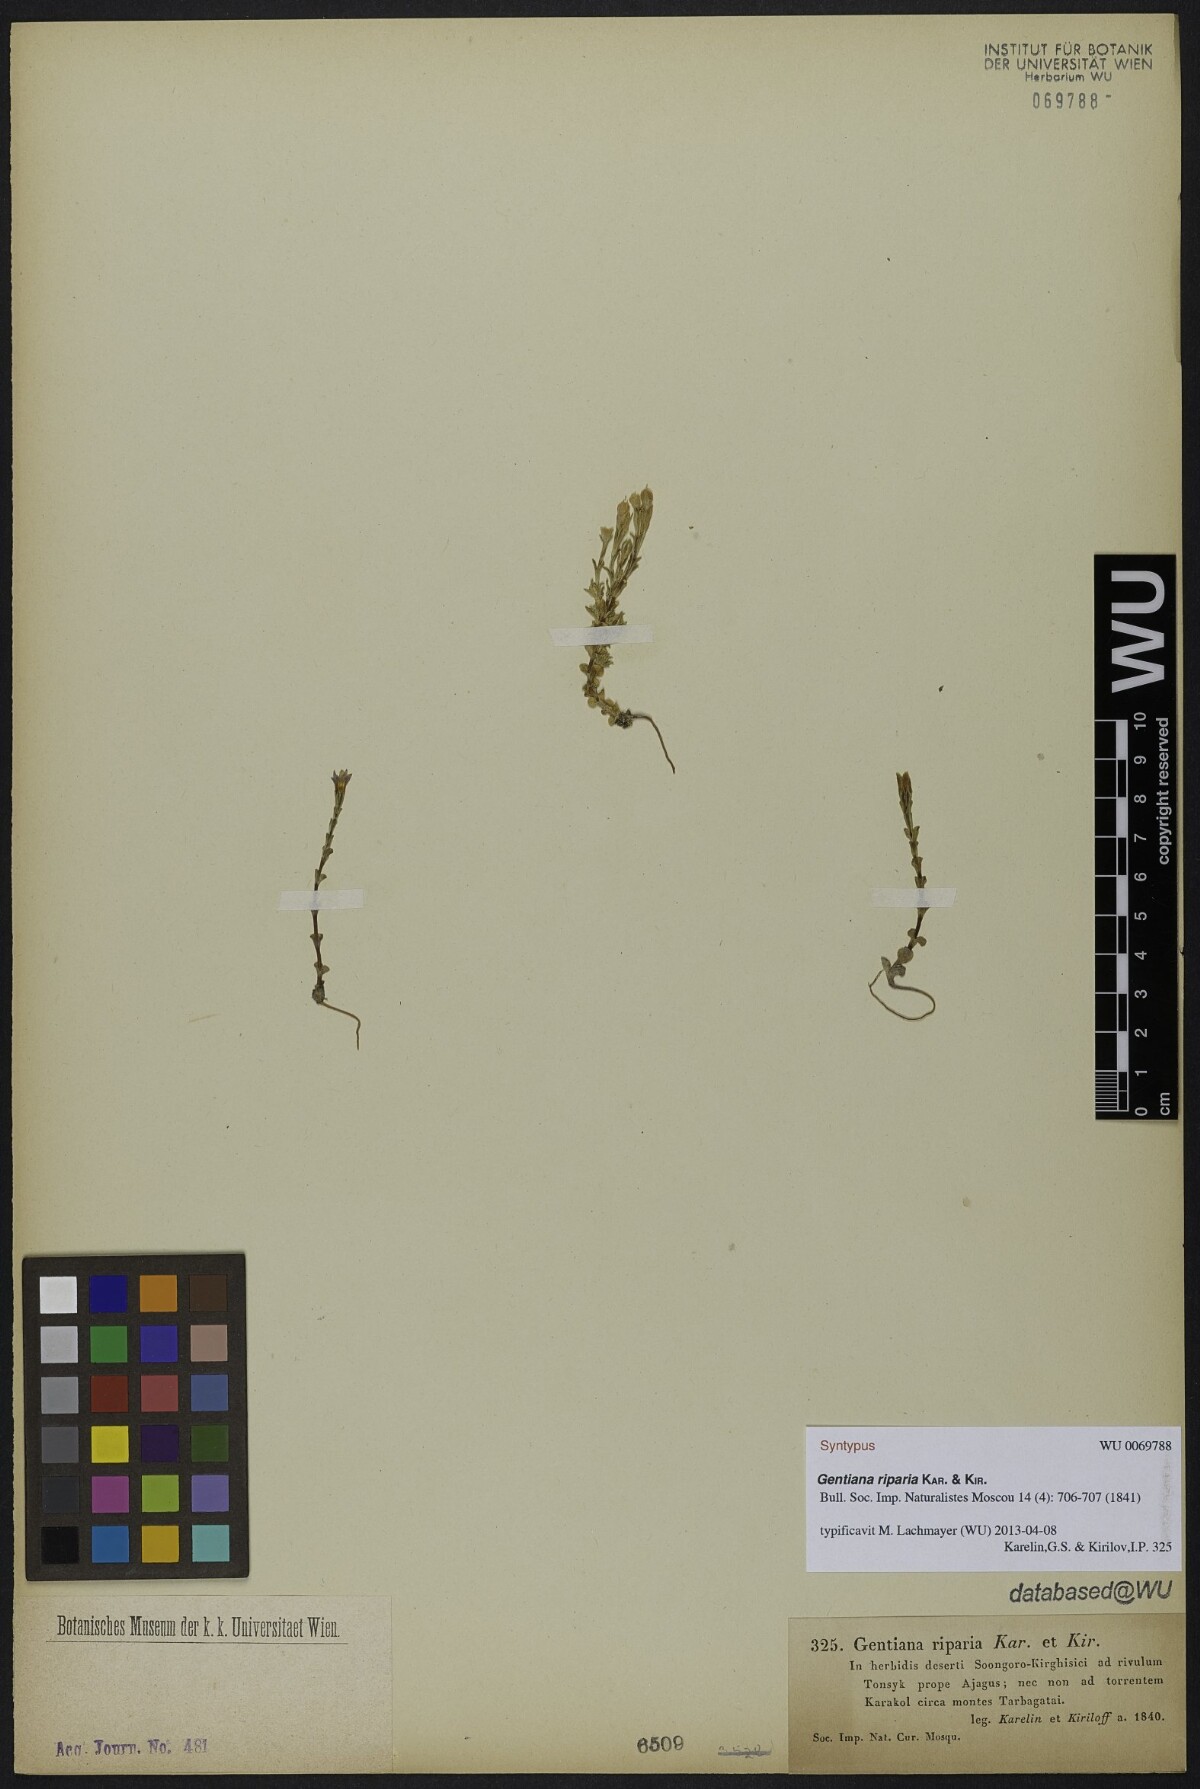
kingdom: Plantae
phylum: Tracheophyta
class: Magnoliopsida
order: Gentianales
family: Gentianaceae
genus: Gentiana
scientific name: Gentiana riparia
